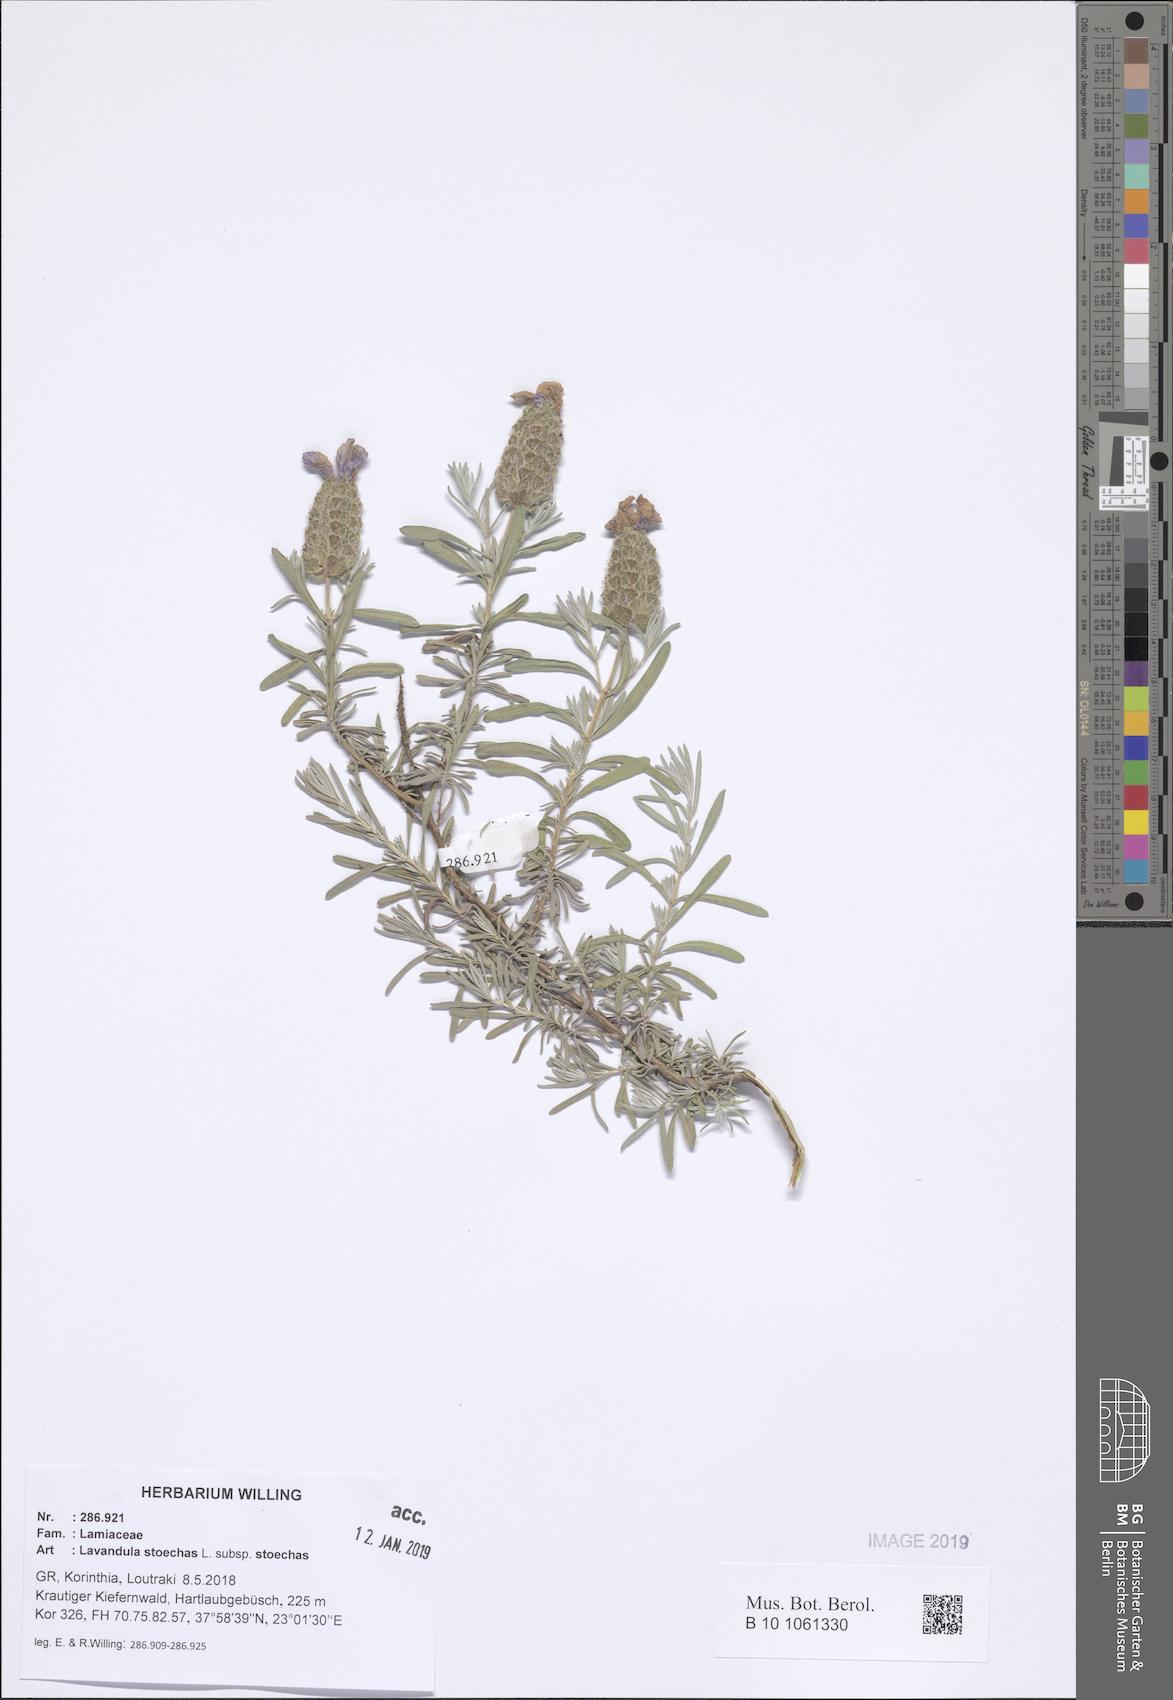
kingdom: Plantae
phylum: Tracheophyta
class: Magnoliopsida
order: Lamiales
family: Lamiaceae
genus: Lavandula
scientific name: Lavandula stoechas
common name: French lavender
